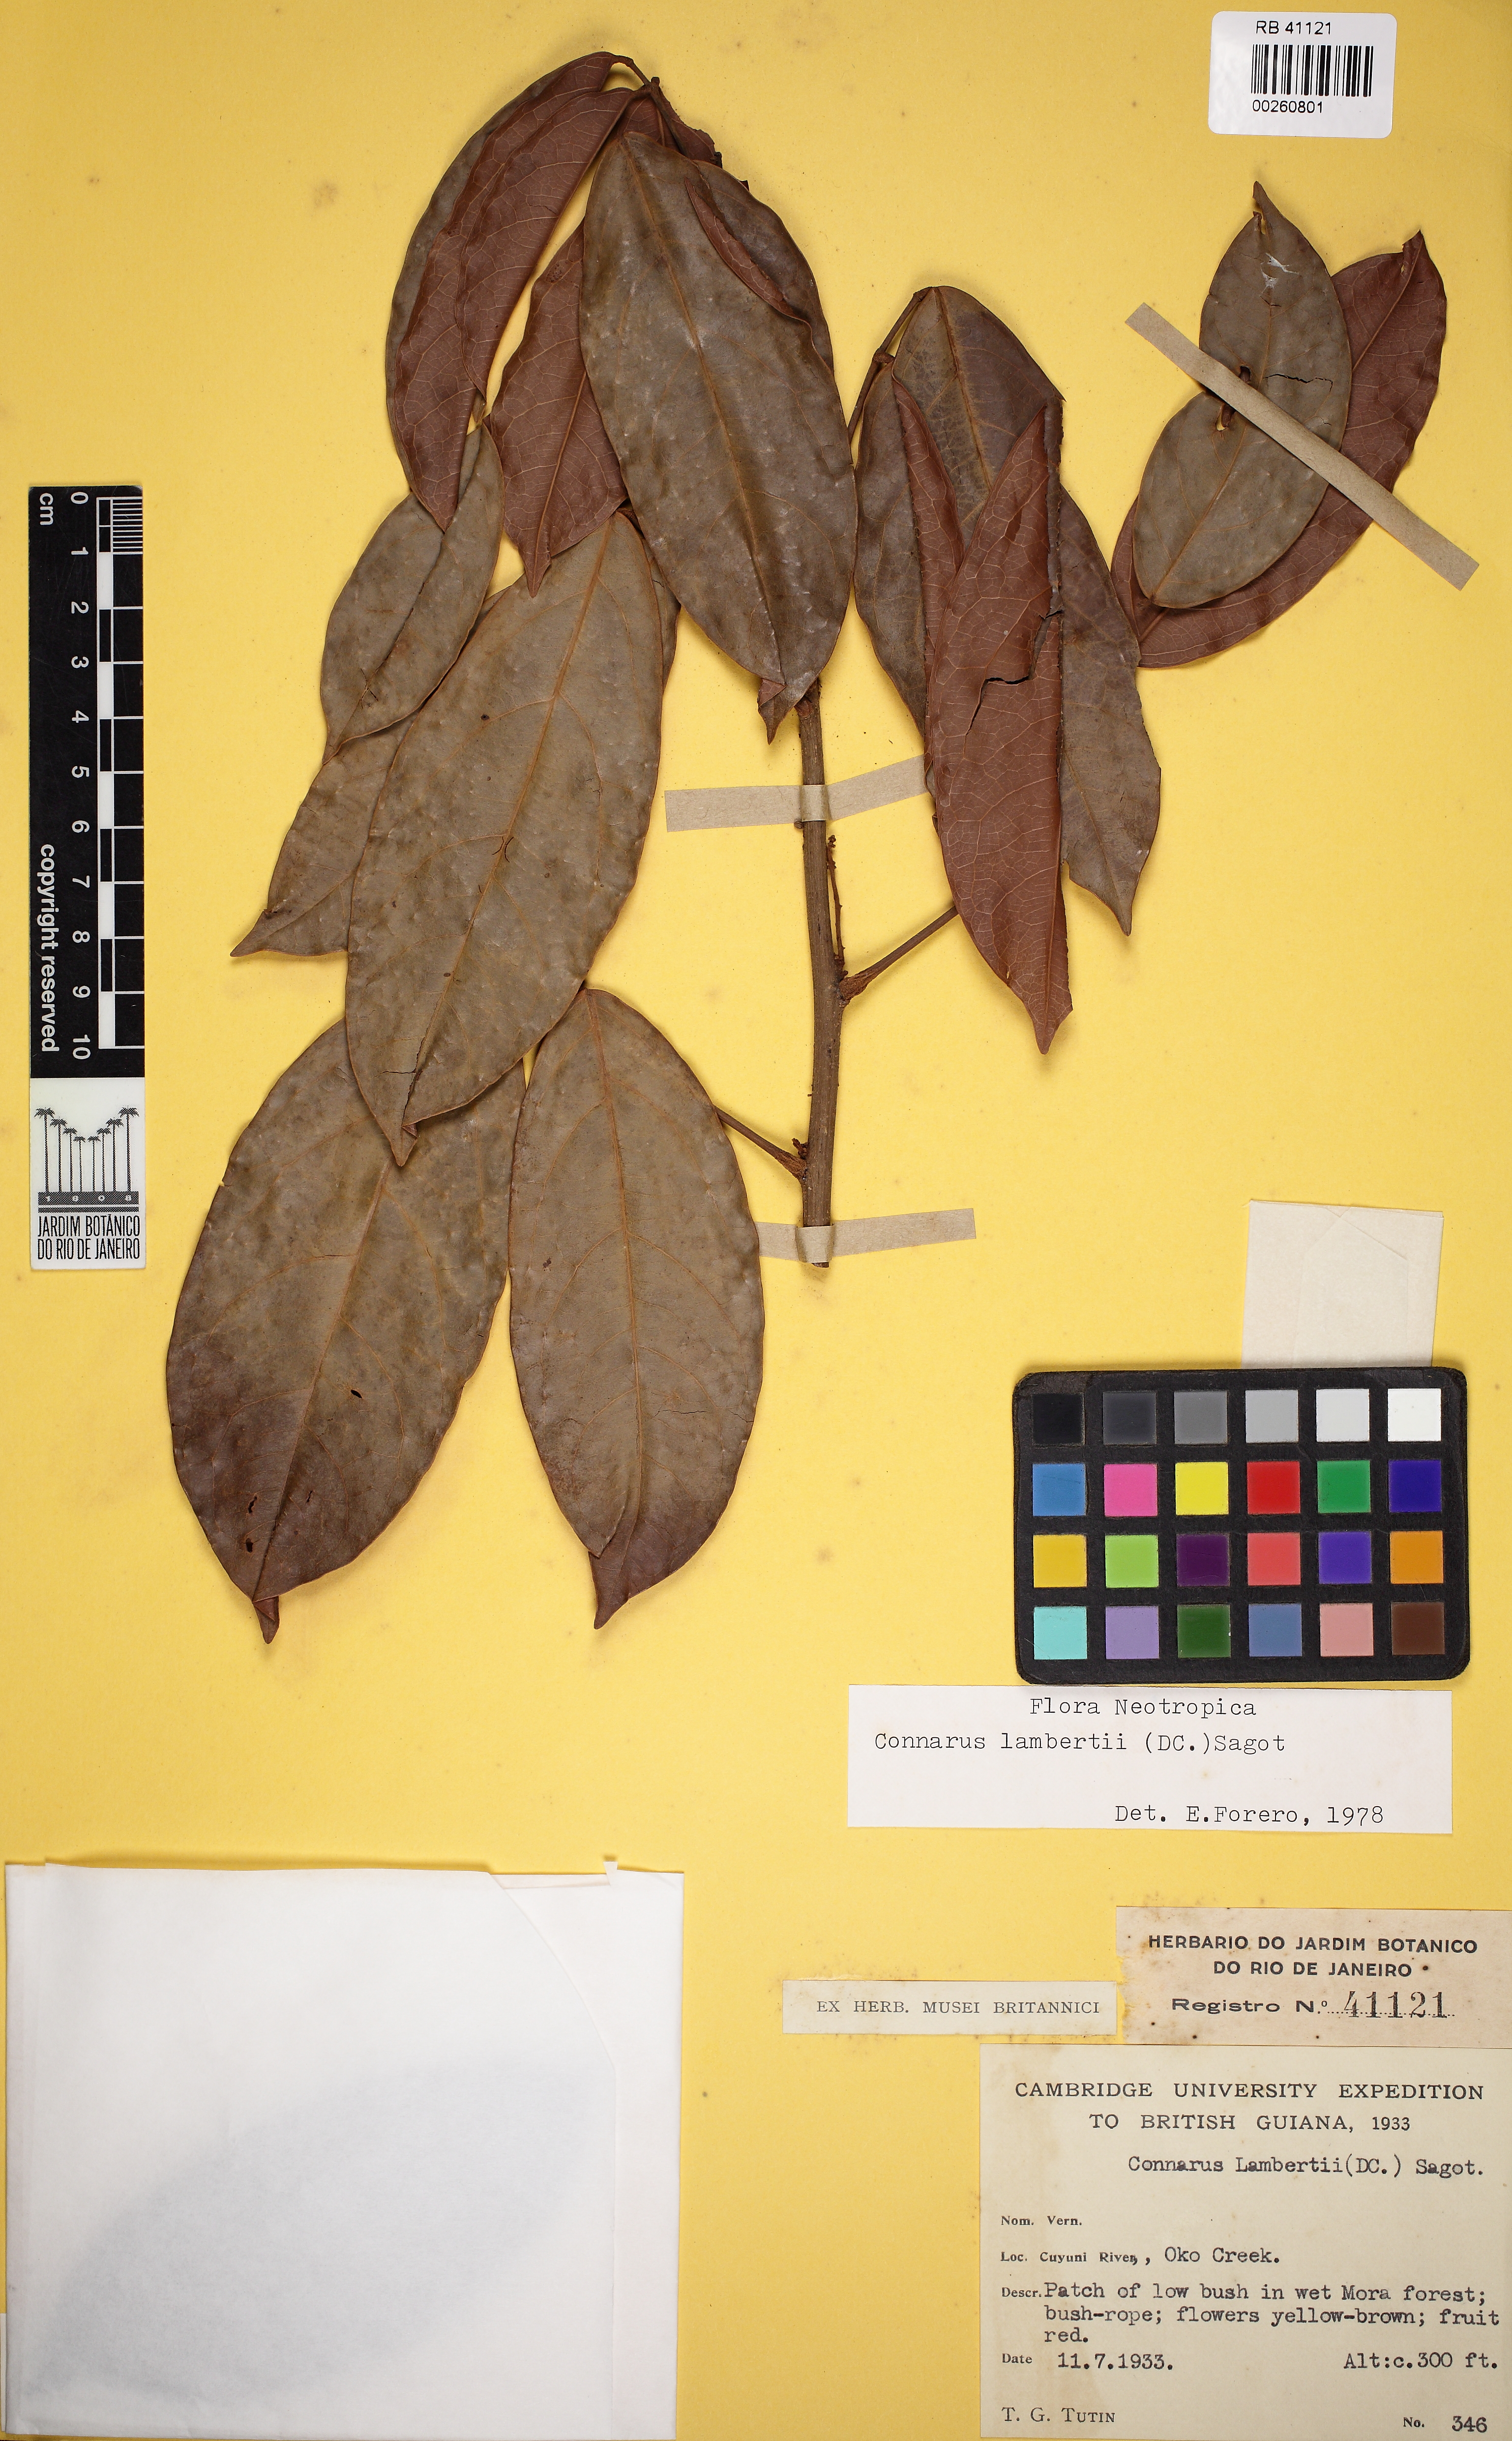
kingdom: Plantae
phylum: Tracheophyta
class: Magnoliopsida
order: Oxalidales
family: Connaraceae
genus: Connarus
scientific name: Connarus lambertii
